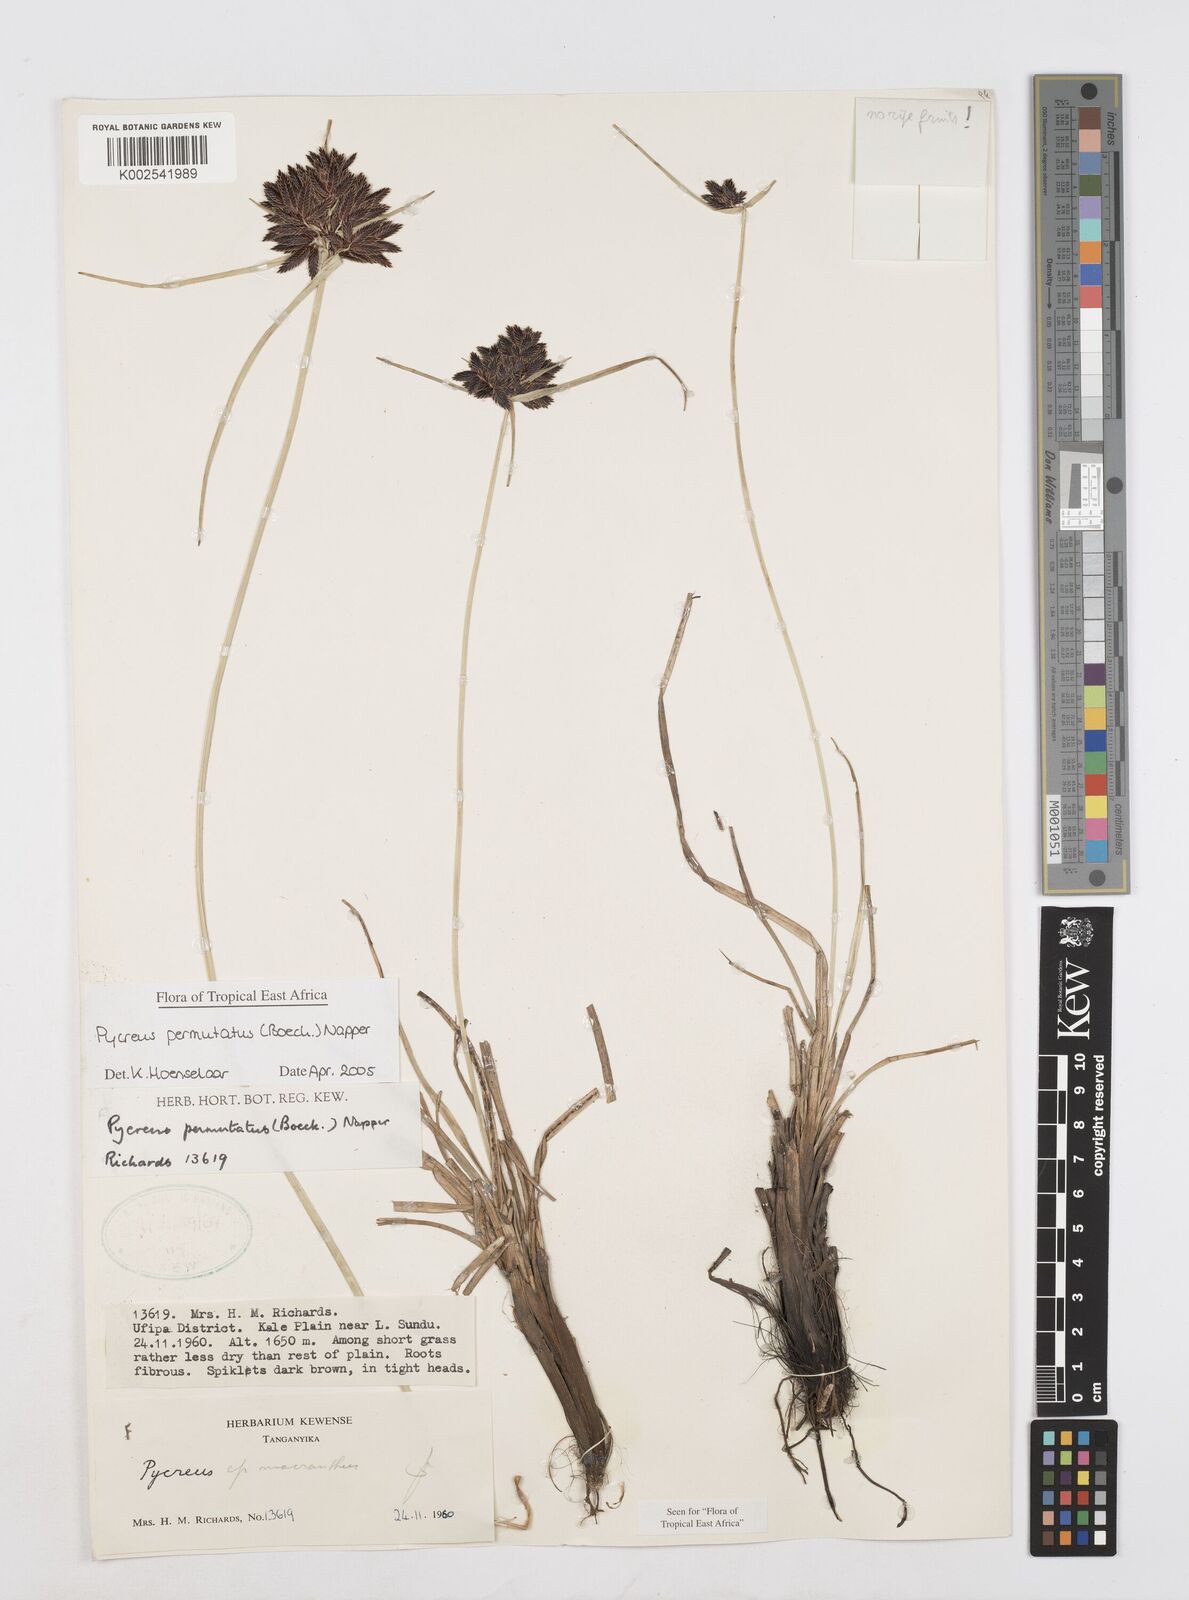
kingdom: Plantae
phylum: Tracheophyta
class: Liliopsida
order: Poales
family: Cyperaceae
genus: Cyperus
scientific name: Cyperus nigricans
